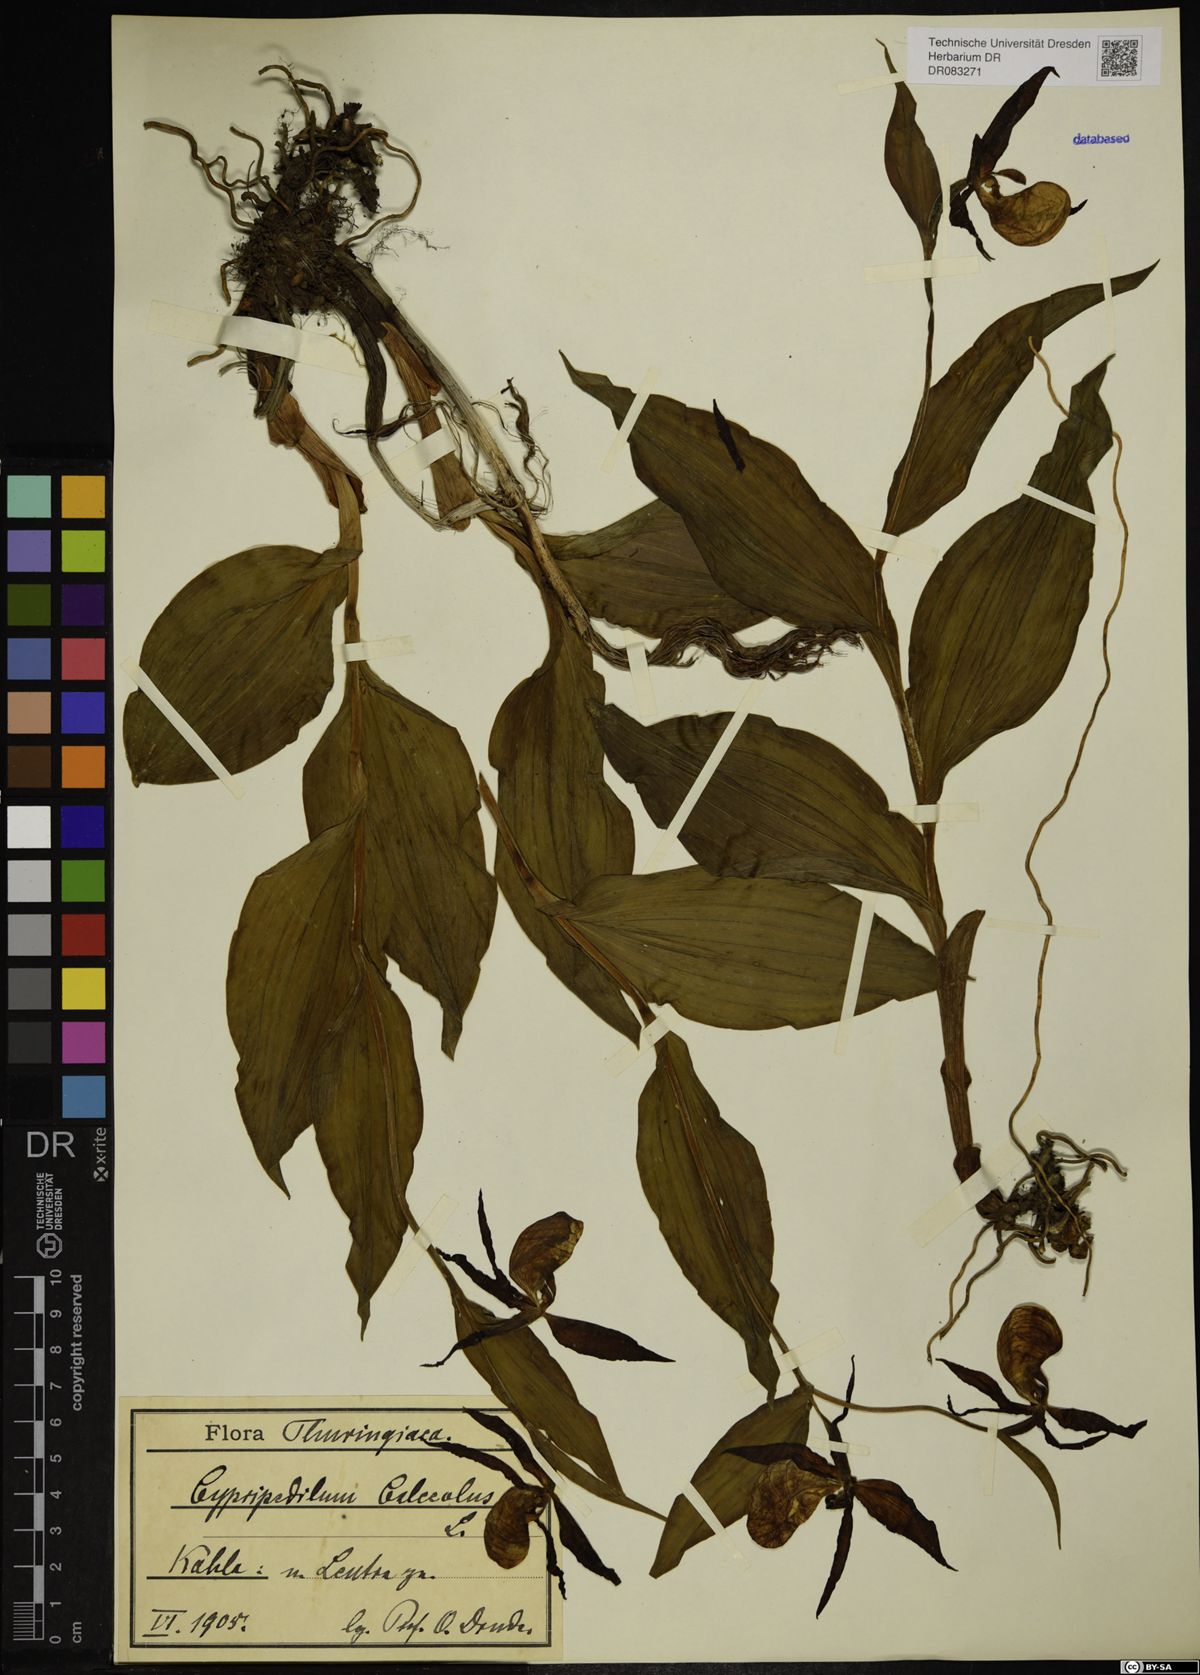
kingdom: Plantae
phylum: Tracheophyta
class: Liliopsida
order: Asparagales
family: Orchidaceae
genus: Cypripedium
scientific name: Cypripedium calceolus
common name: Lady's-slipper
